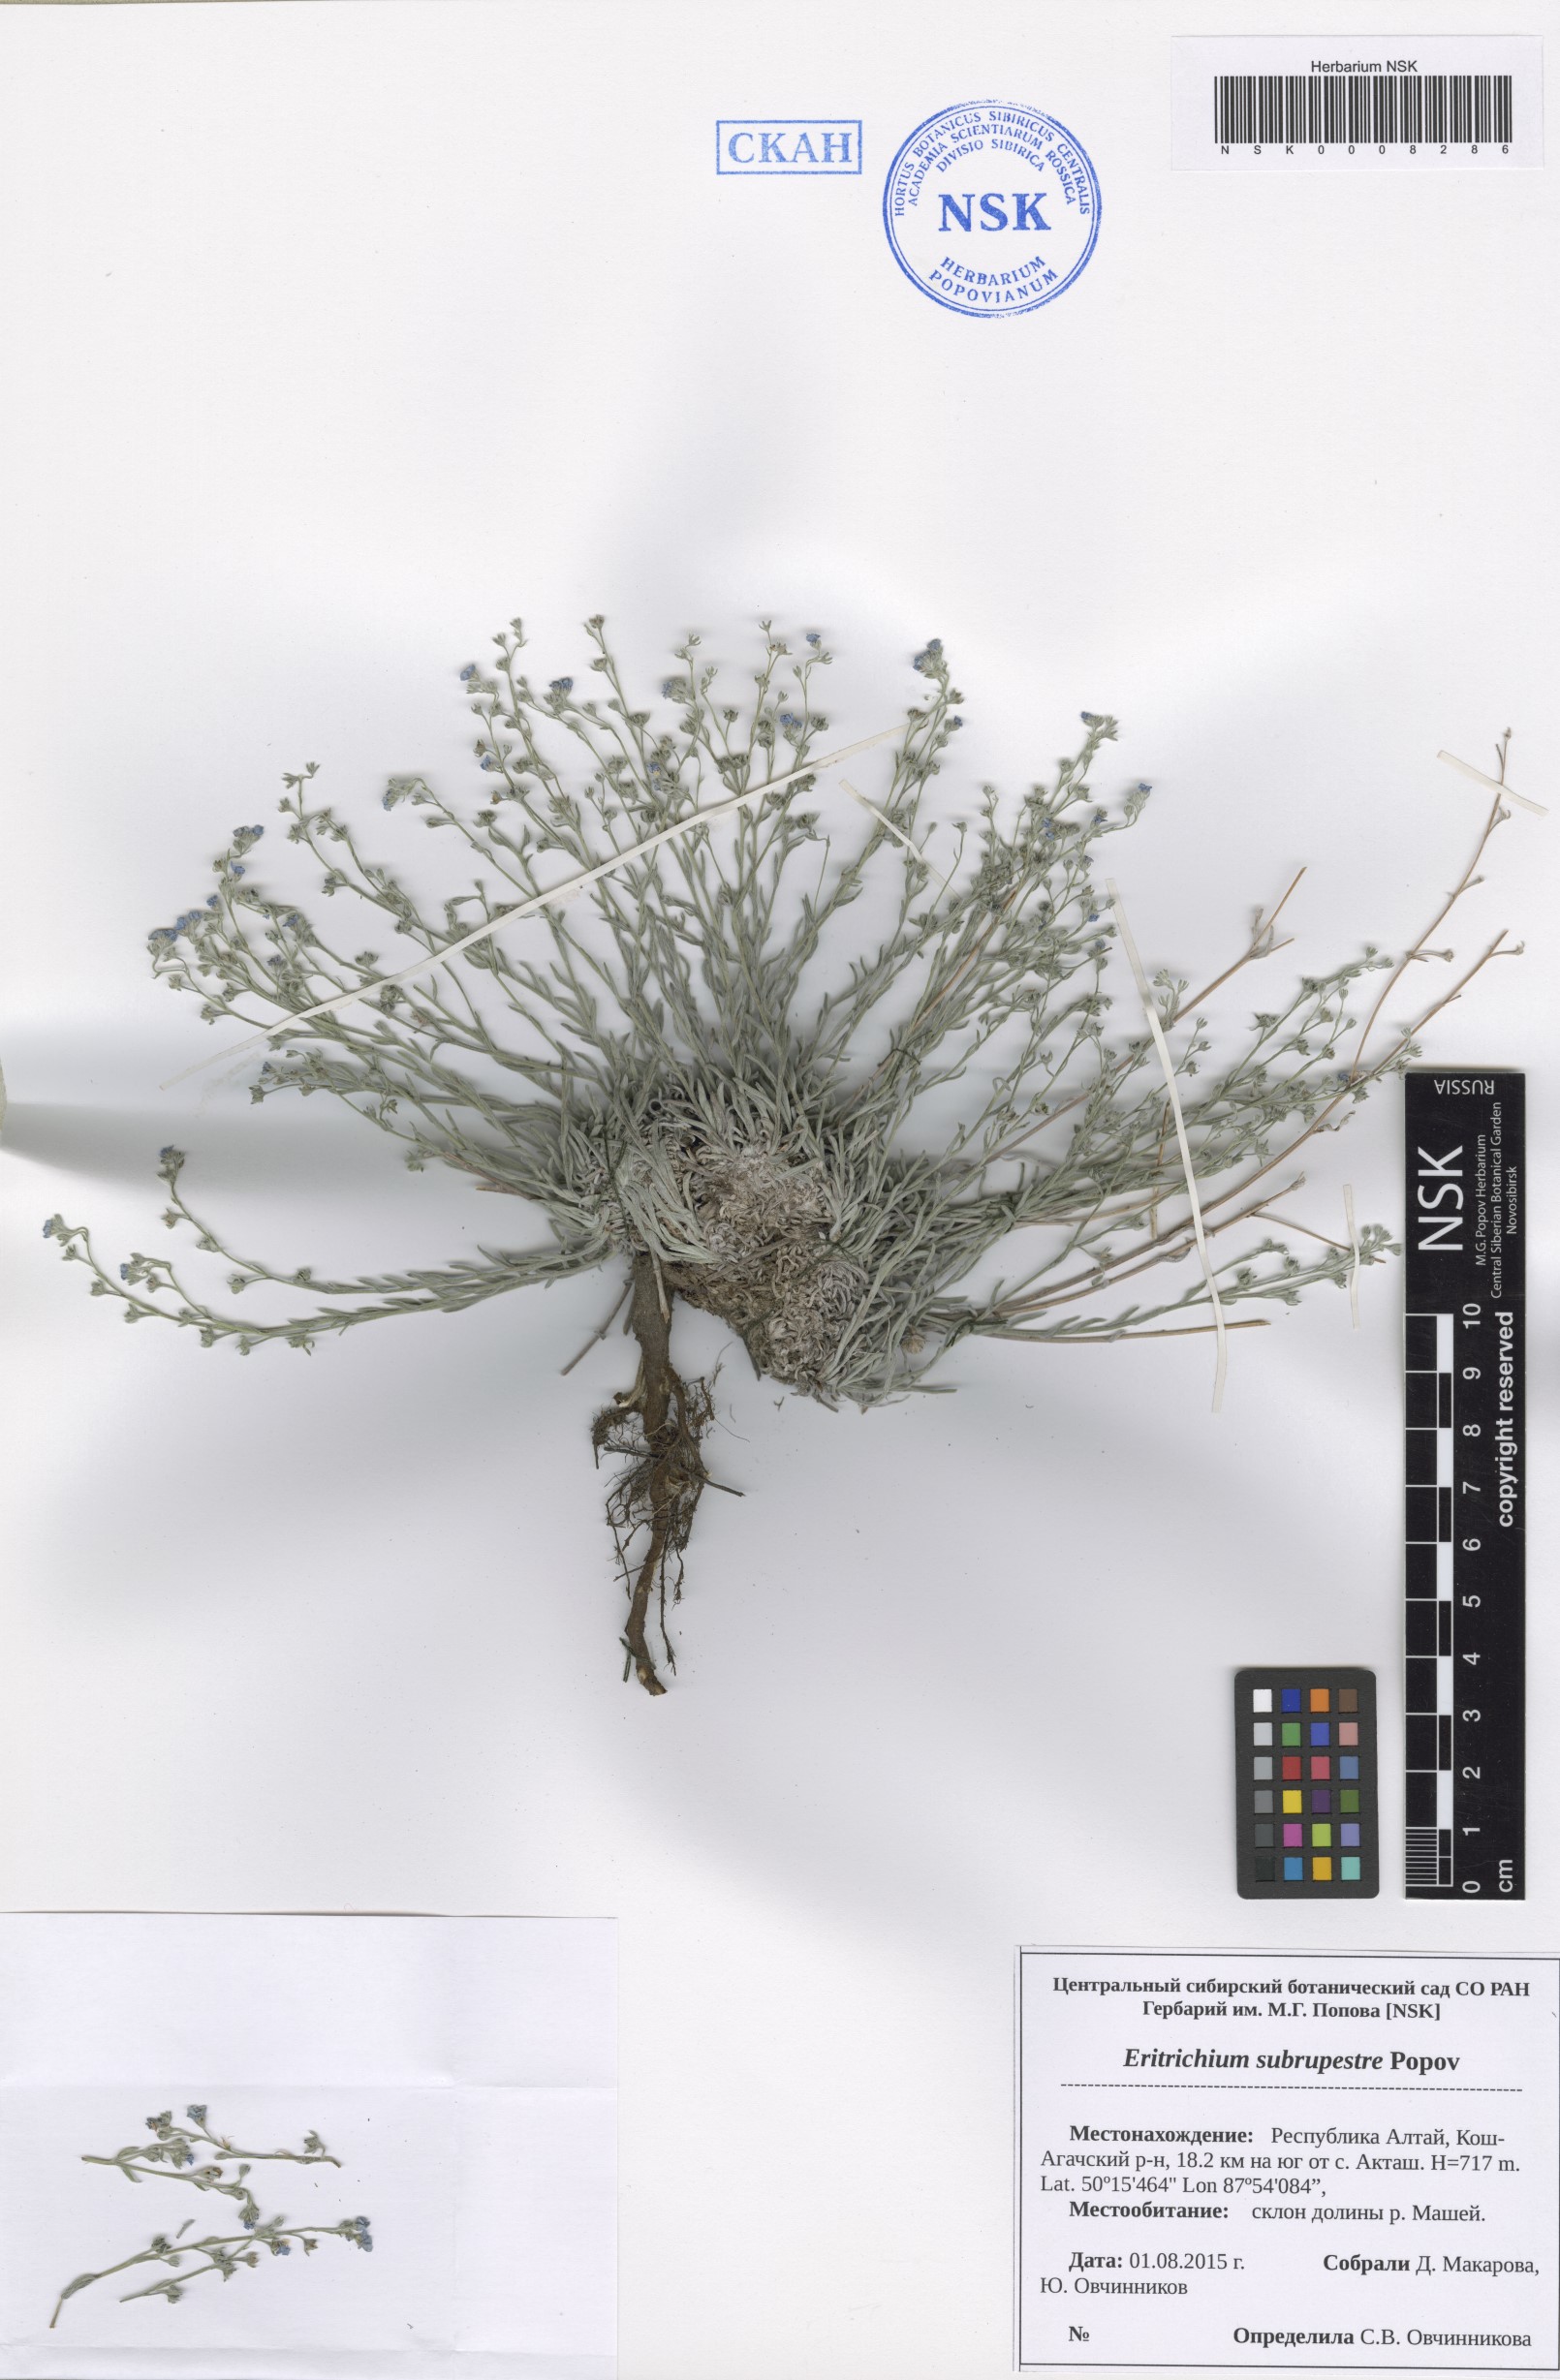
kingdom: Plantae
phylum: Tracheophyta
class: Magnoliopsida
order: Boraginales
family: Boraginaceae
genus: Eritrichium
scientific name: Eritrichium pauciflorum
